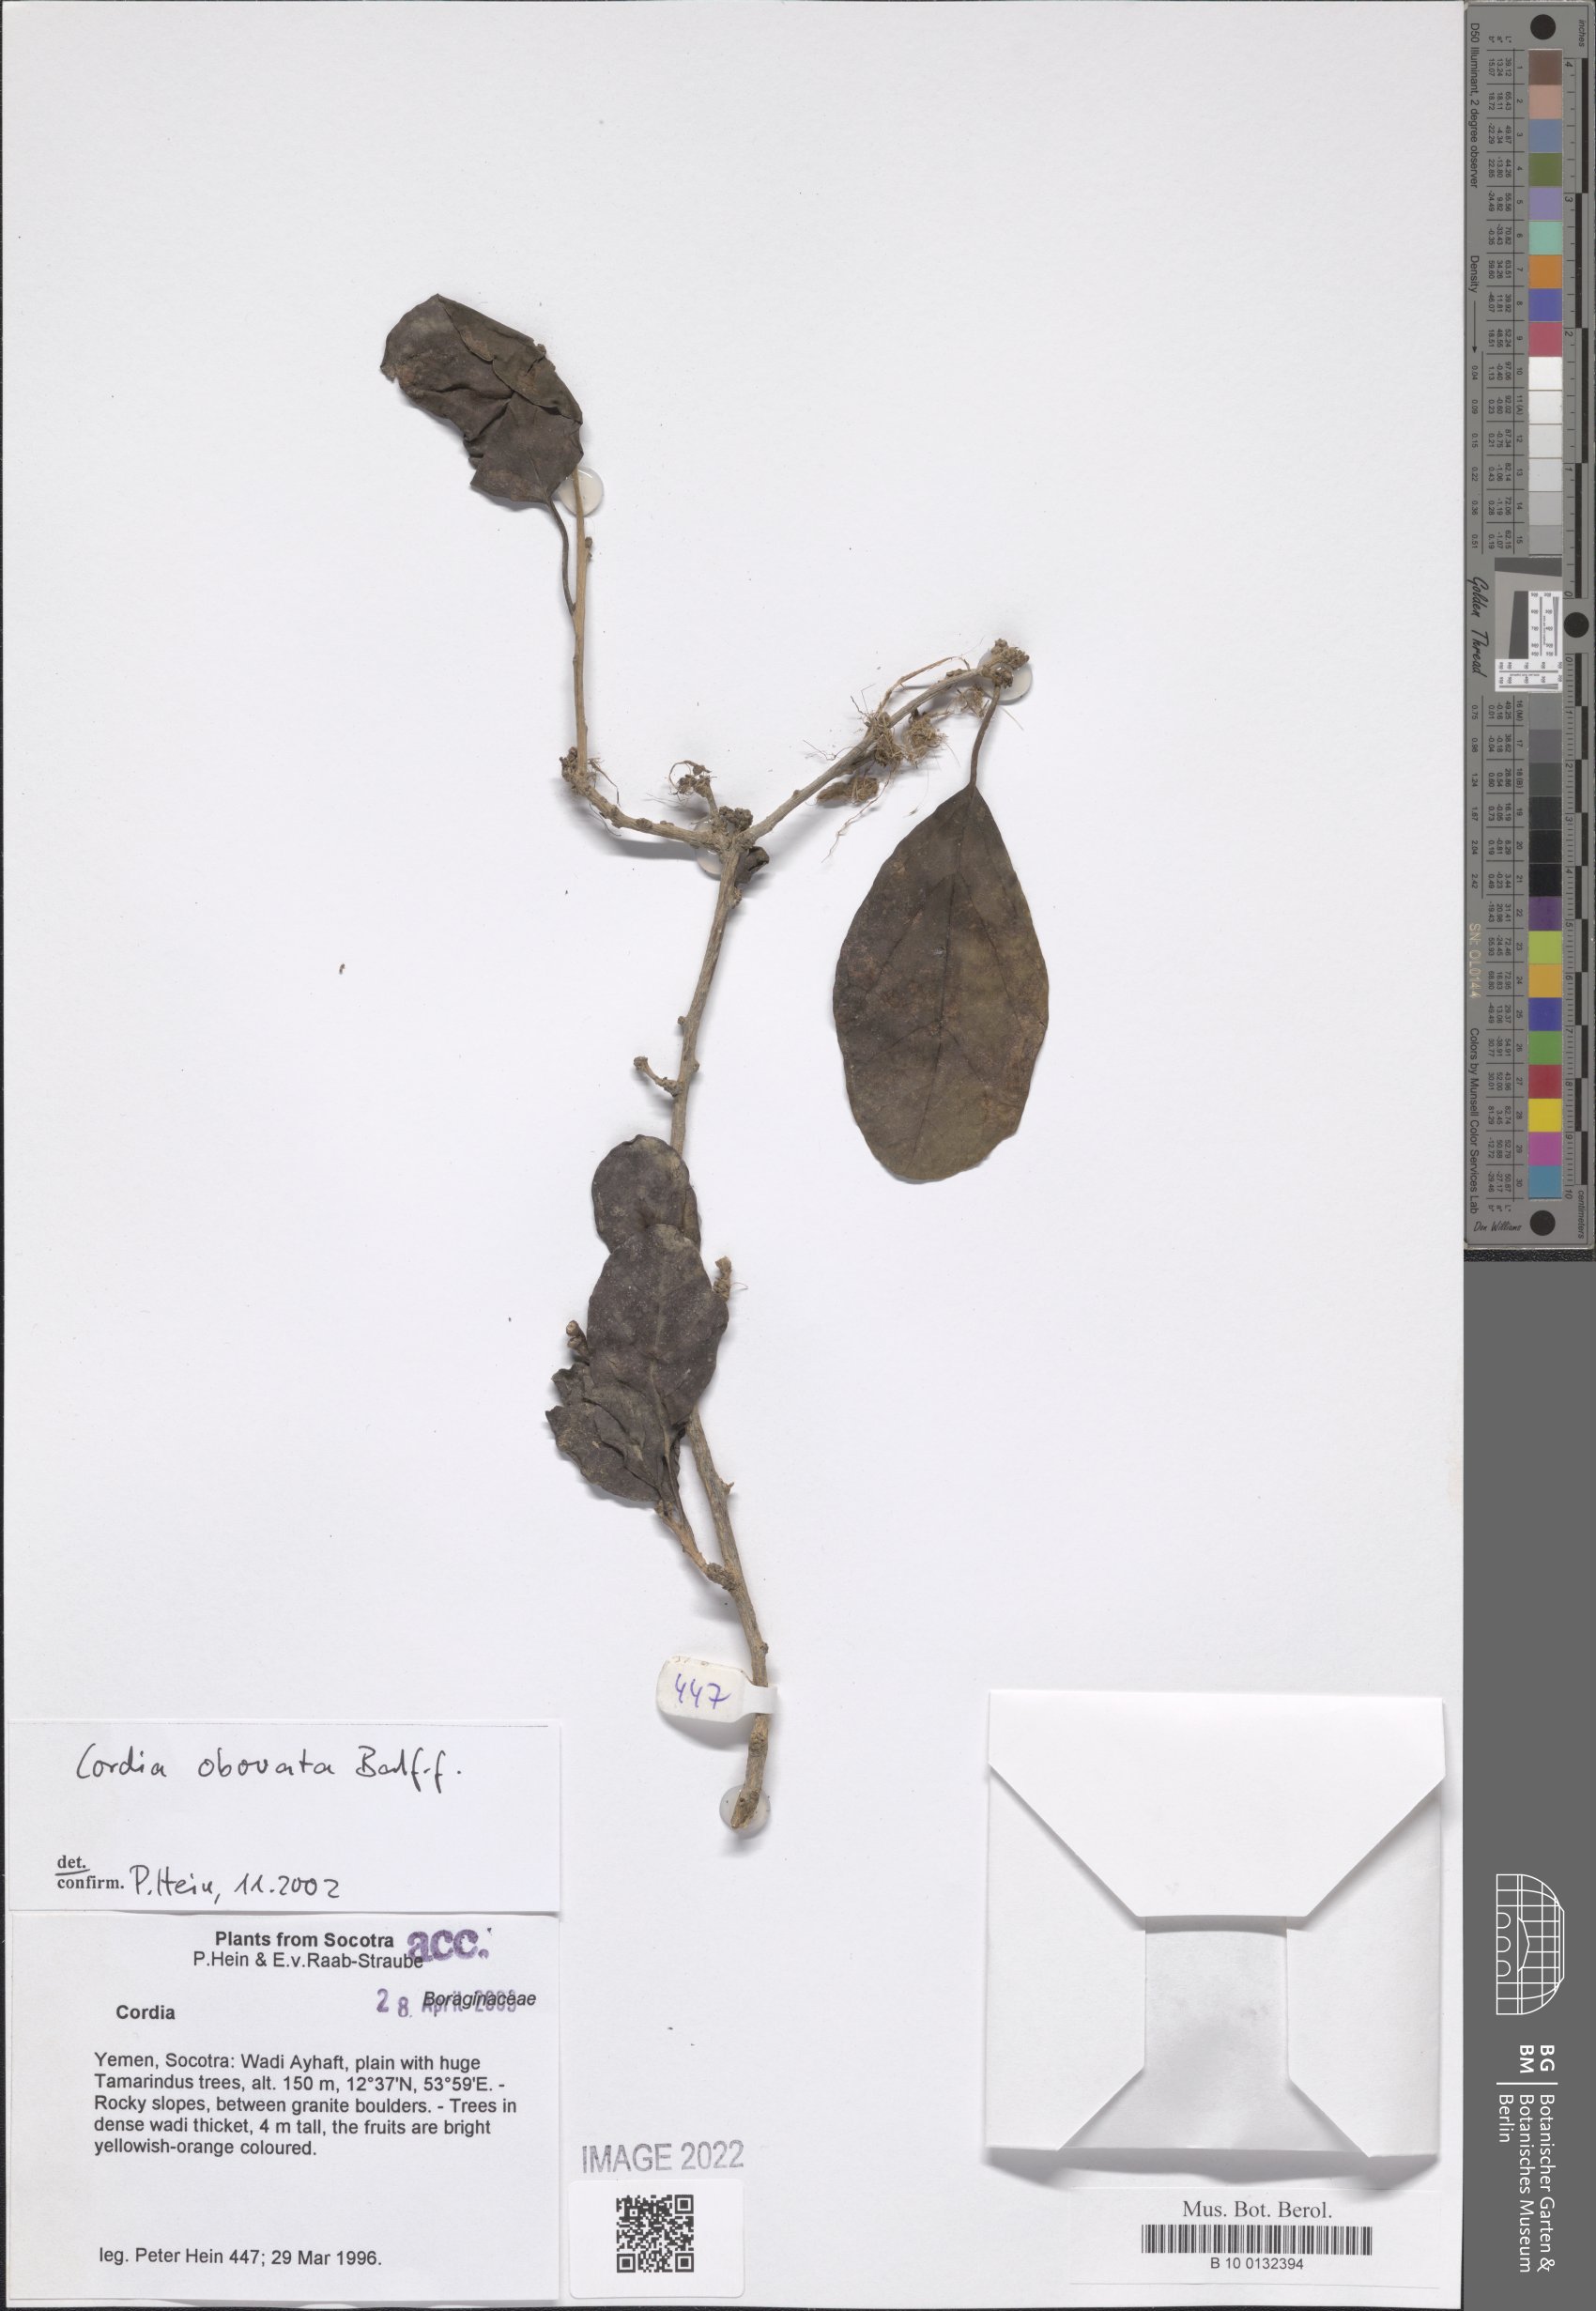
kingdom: Plantae
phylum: Tracheophyta
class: Magnoliopsida
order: Boraginales
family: Cordiaceae
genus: Cordia
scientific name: Cordia obovata
